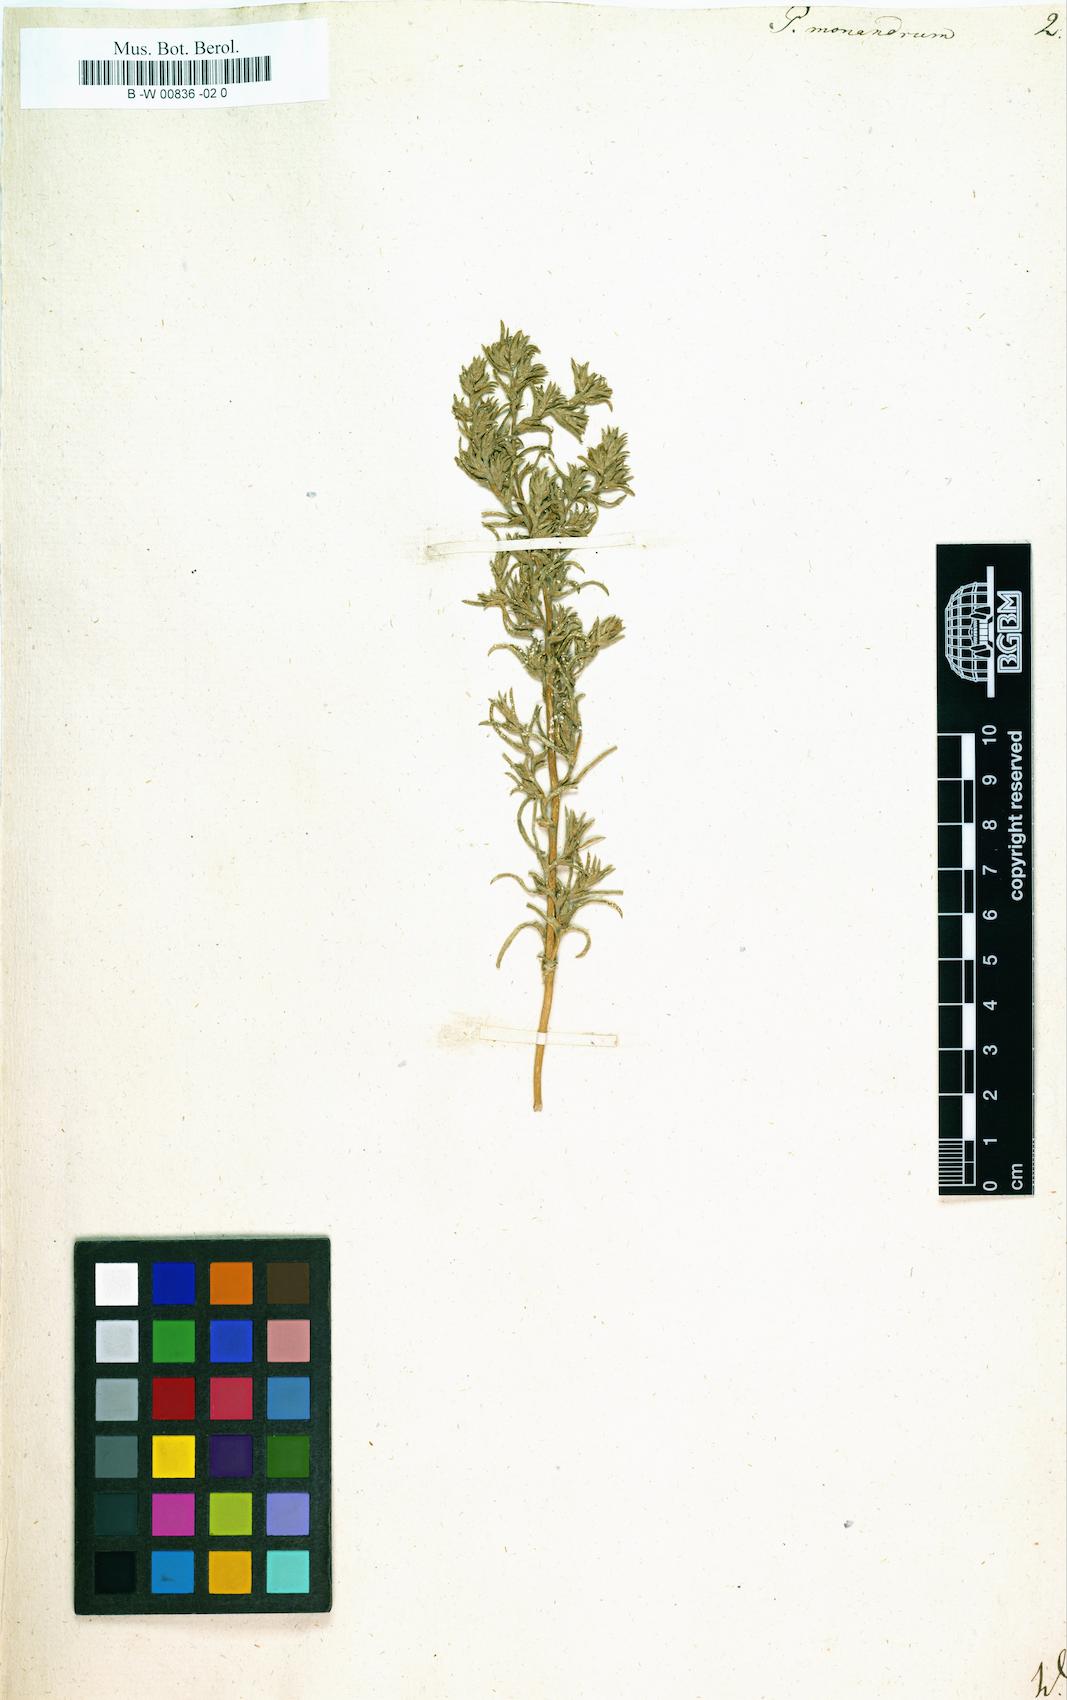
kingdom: Plantae
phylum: Tracheophyta
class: Magnoliopsida
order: Caryophyllales
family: Amaranthaceae
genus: Petrosimonia
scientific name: Petrosimonia monandra
